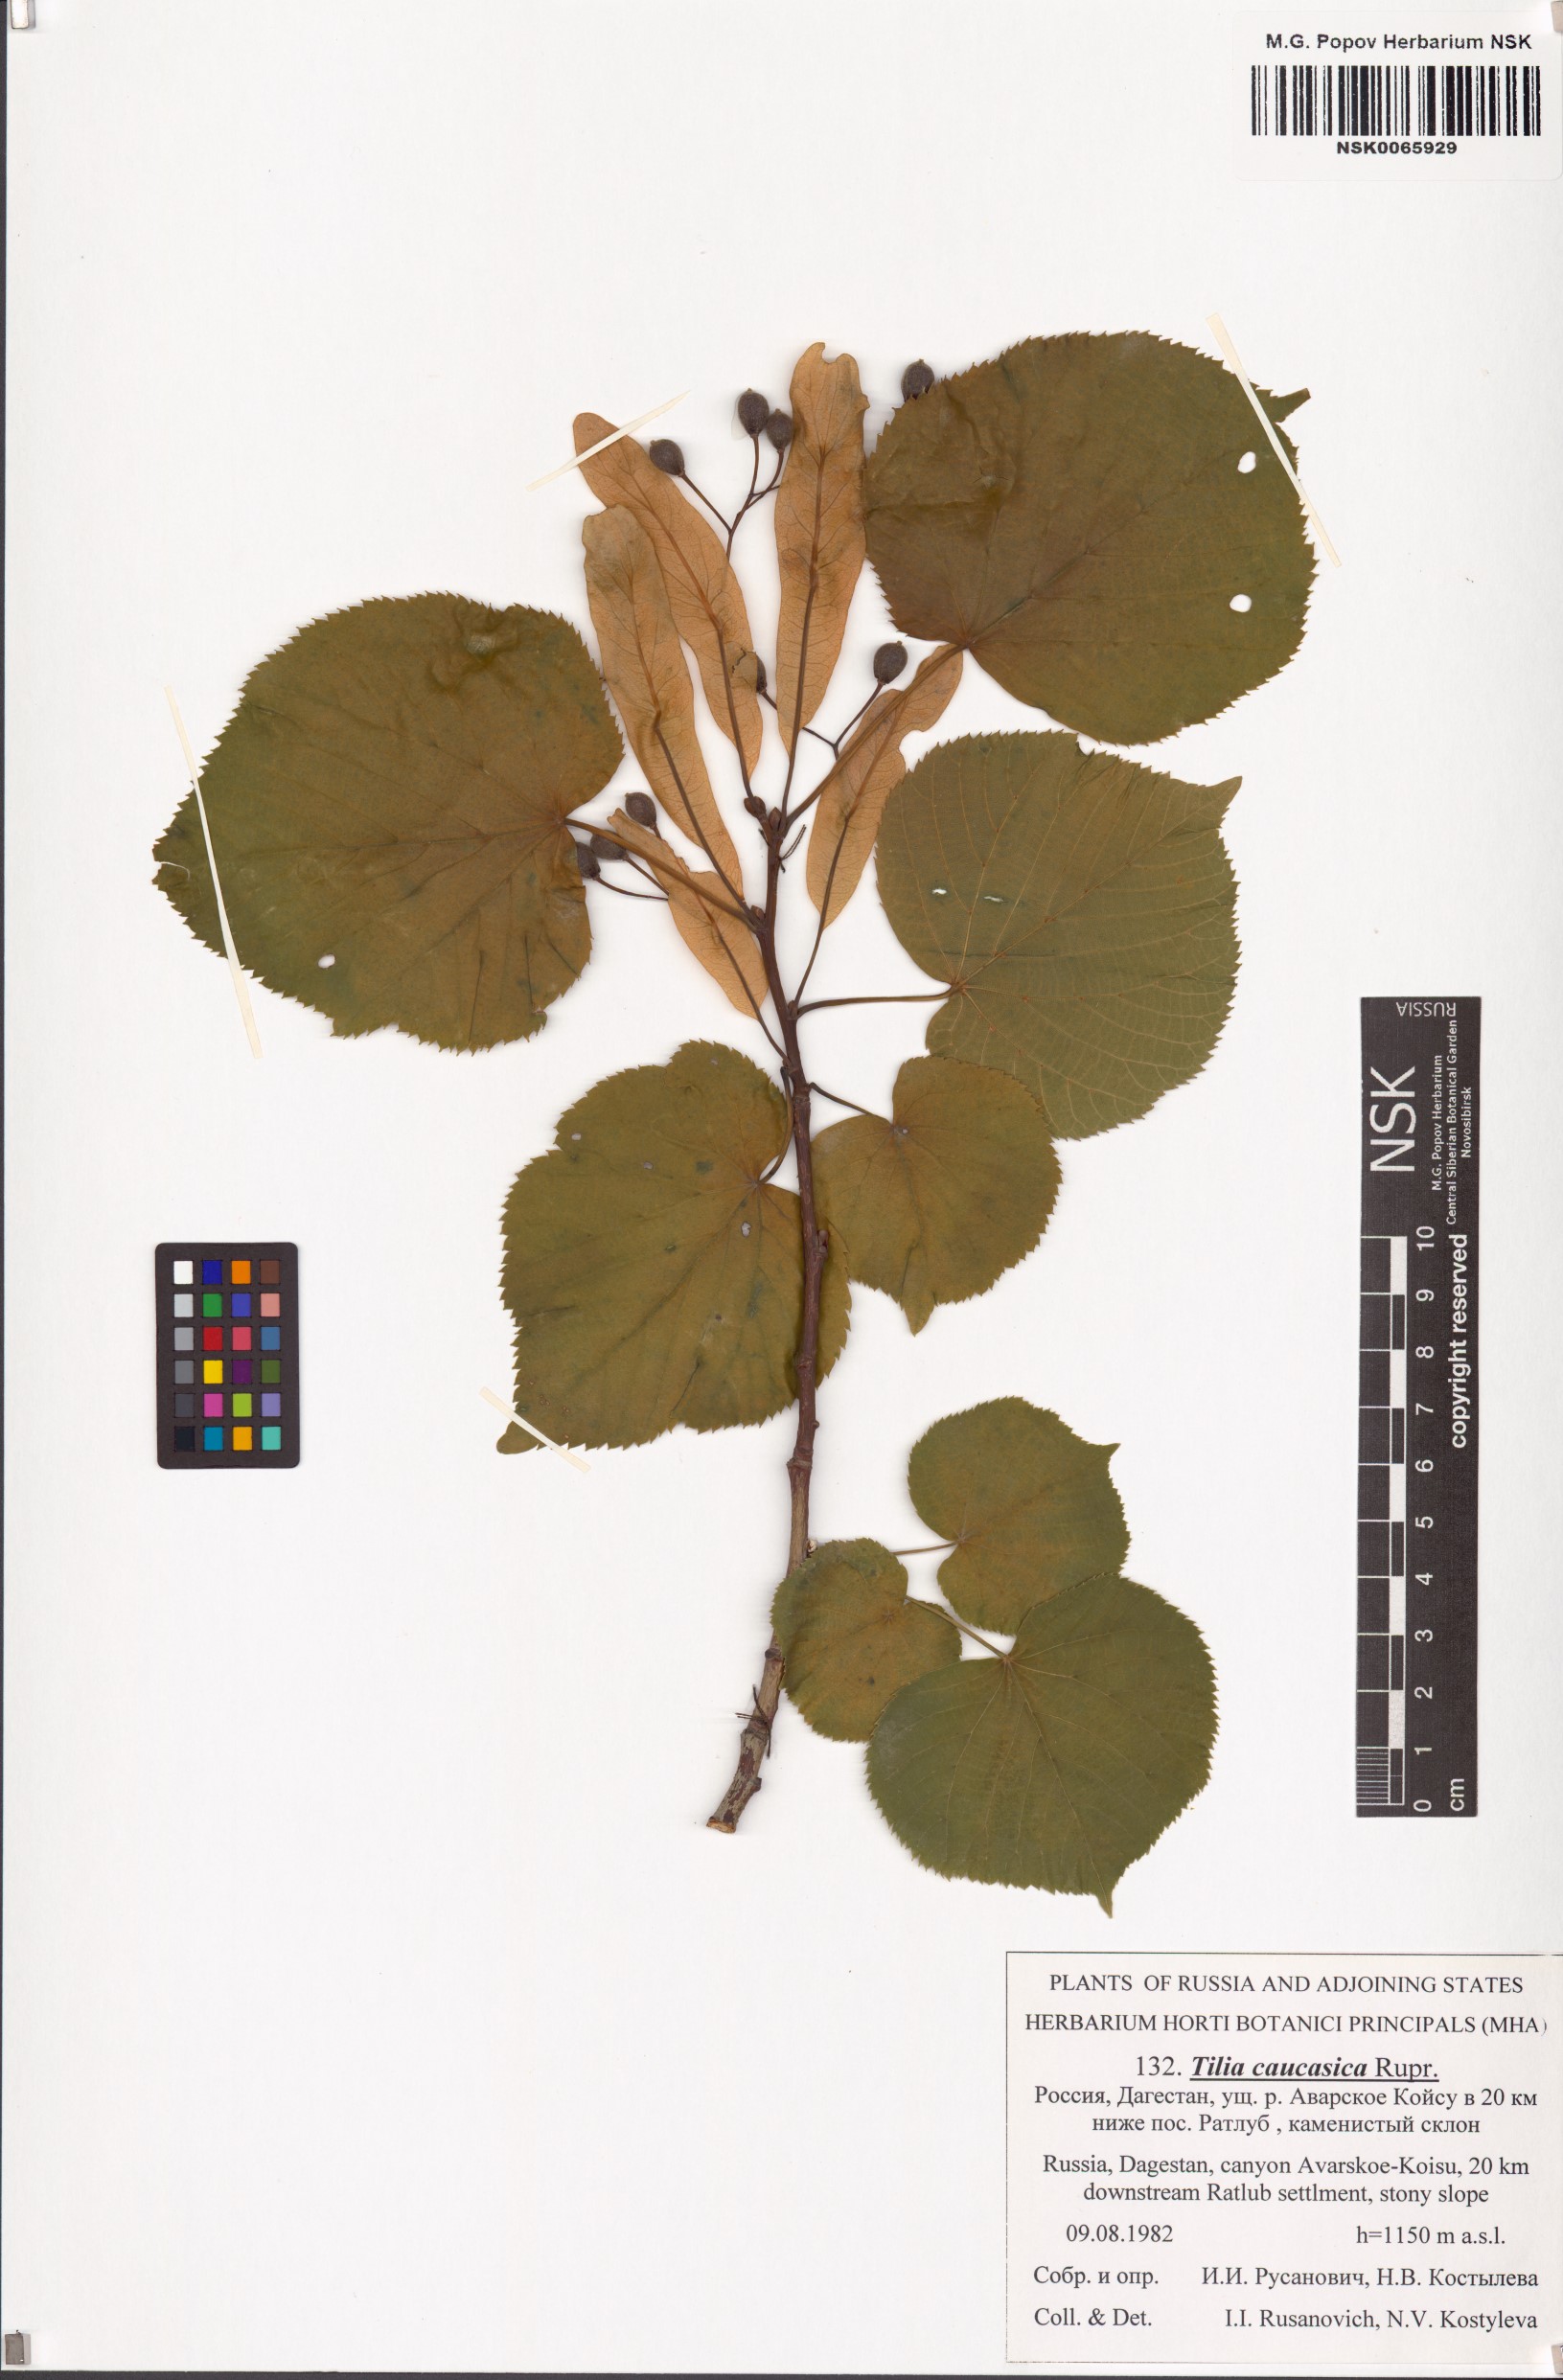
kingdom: Plantae
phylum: Tracheophyta
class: Magnoliopsida
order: Malvales
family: Malvaceae
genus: Tilia
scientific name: Tilia dasystyla
